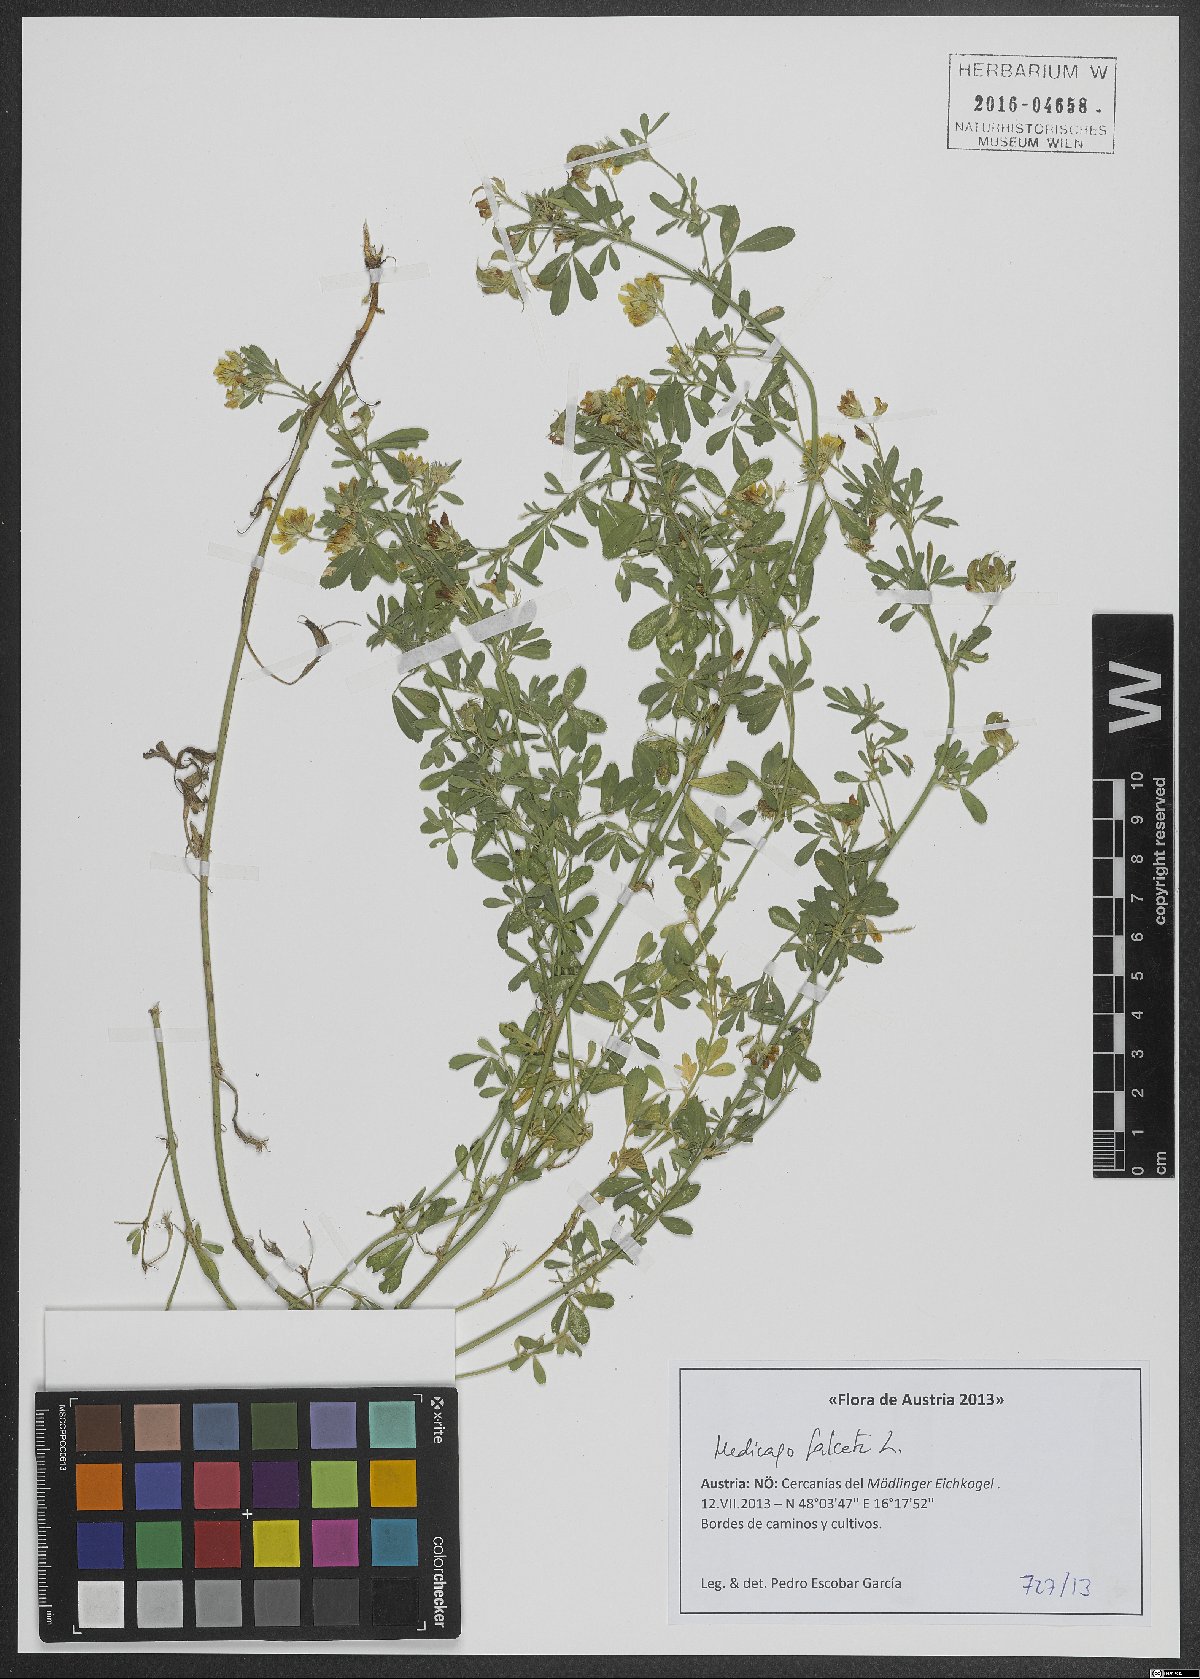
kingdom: Plantae
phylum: Tracheophyta
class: Magnoliopsida
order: Fabales
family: Fabaceae
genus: Medicago
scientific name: Medicago falcata
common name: Sickle medick
